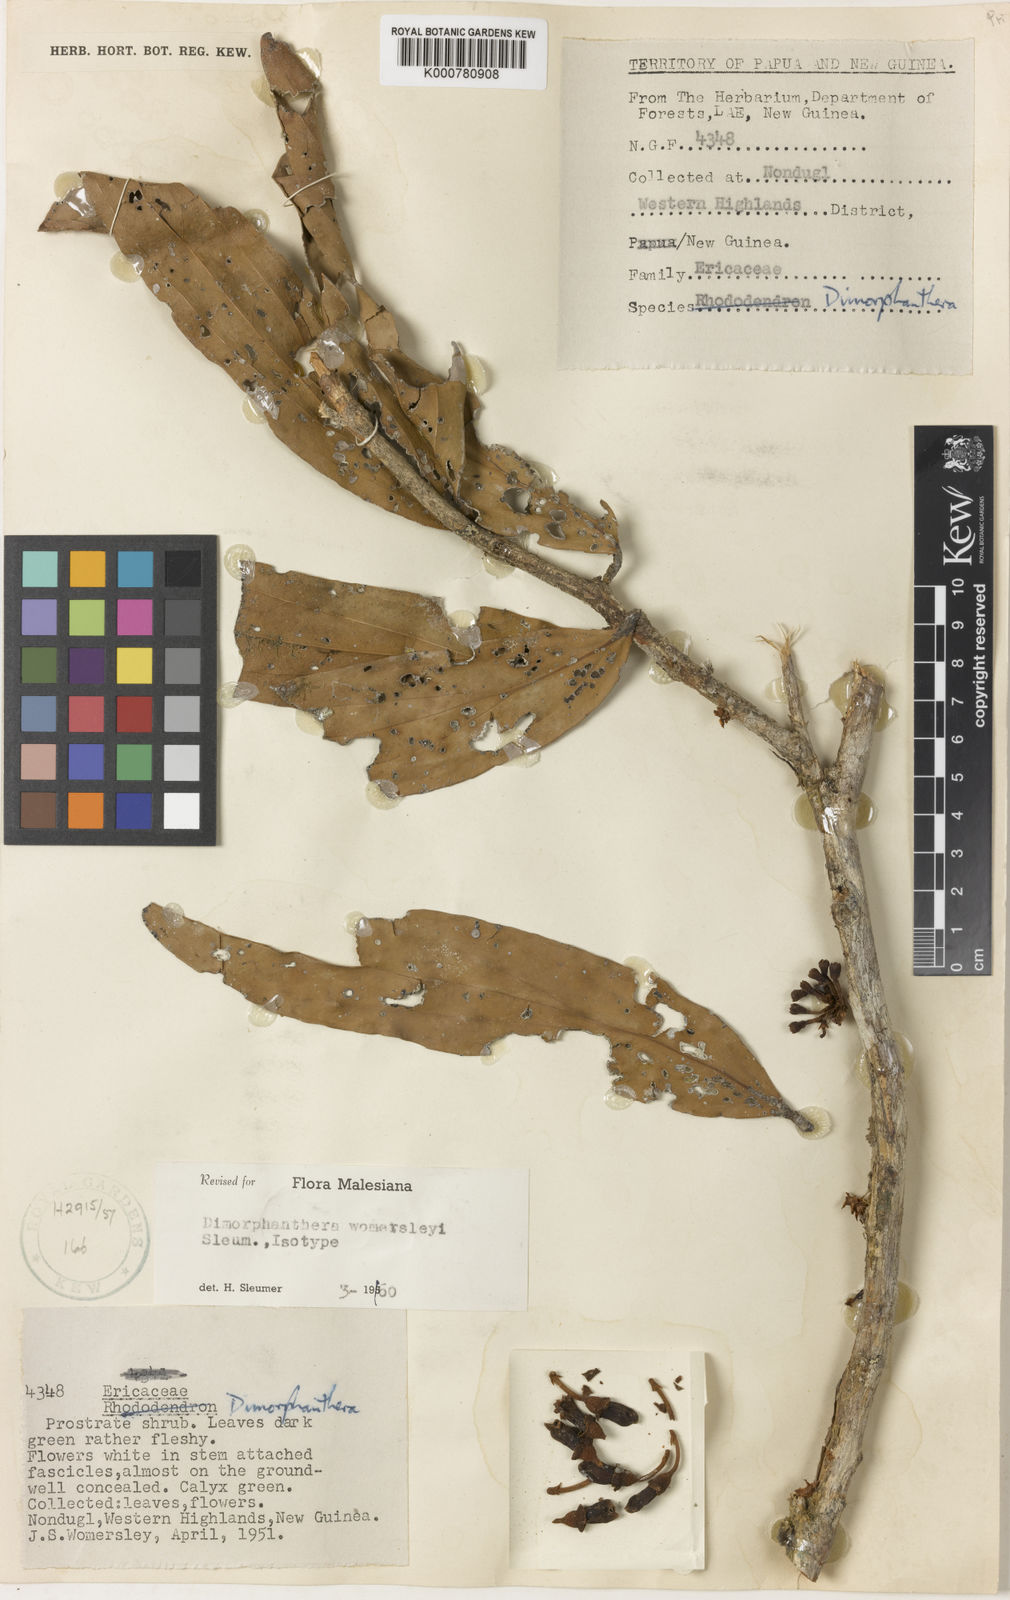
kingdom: Plantae
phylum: Tracheophyta
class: Magnoliopsida
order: Ericales
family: Ericaceae
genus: Dimorphanthera
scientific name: Dimorphanthera womersleyi
